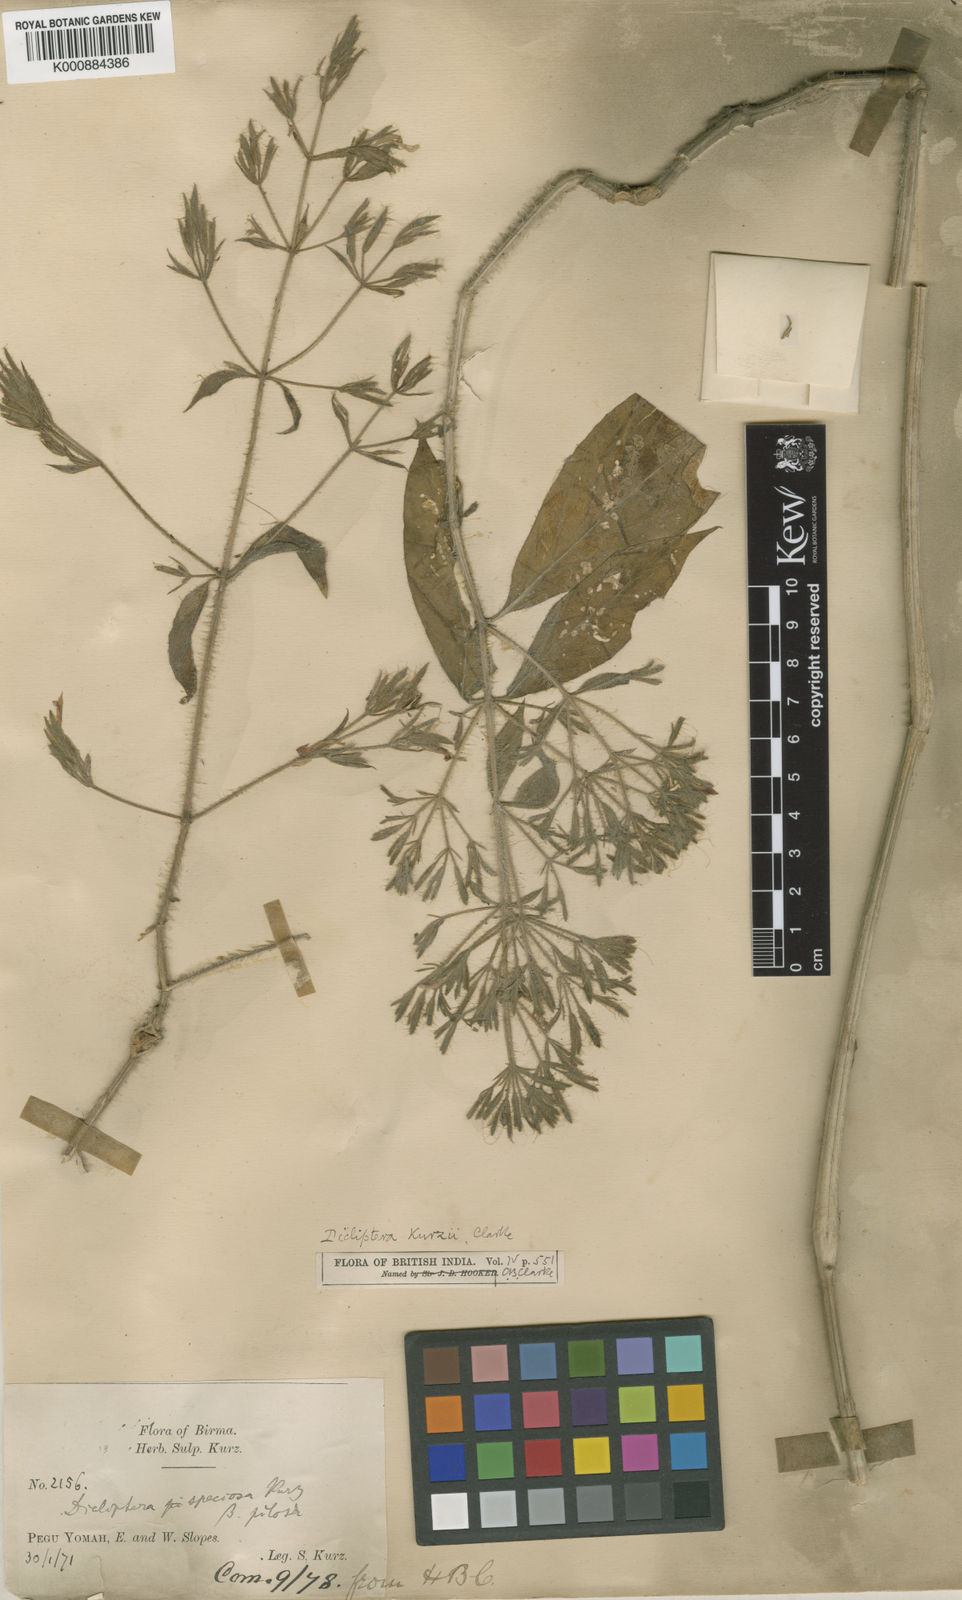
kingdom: Plantae
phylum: Tracheophyta
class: Magnoliopsida
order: Lamiales
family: Acanthaceae
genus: Dicliptera
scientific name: Dicliptera kurzii
